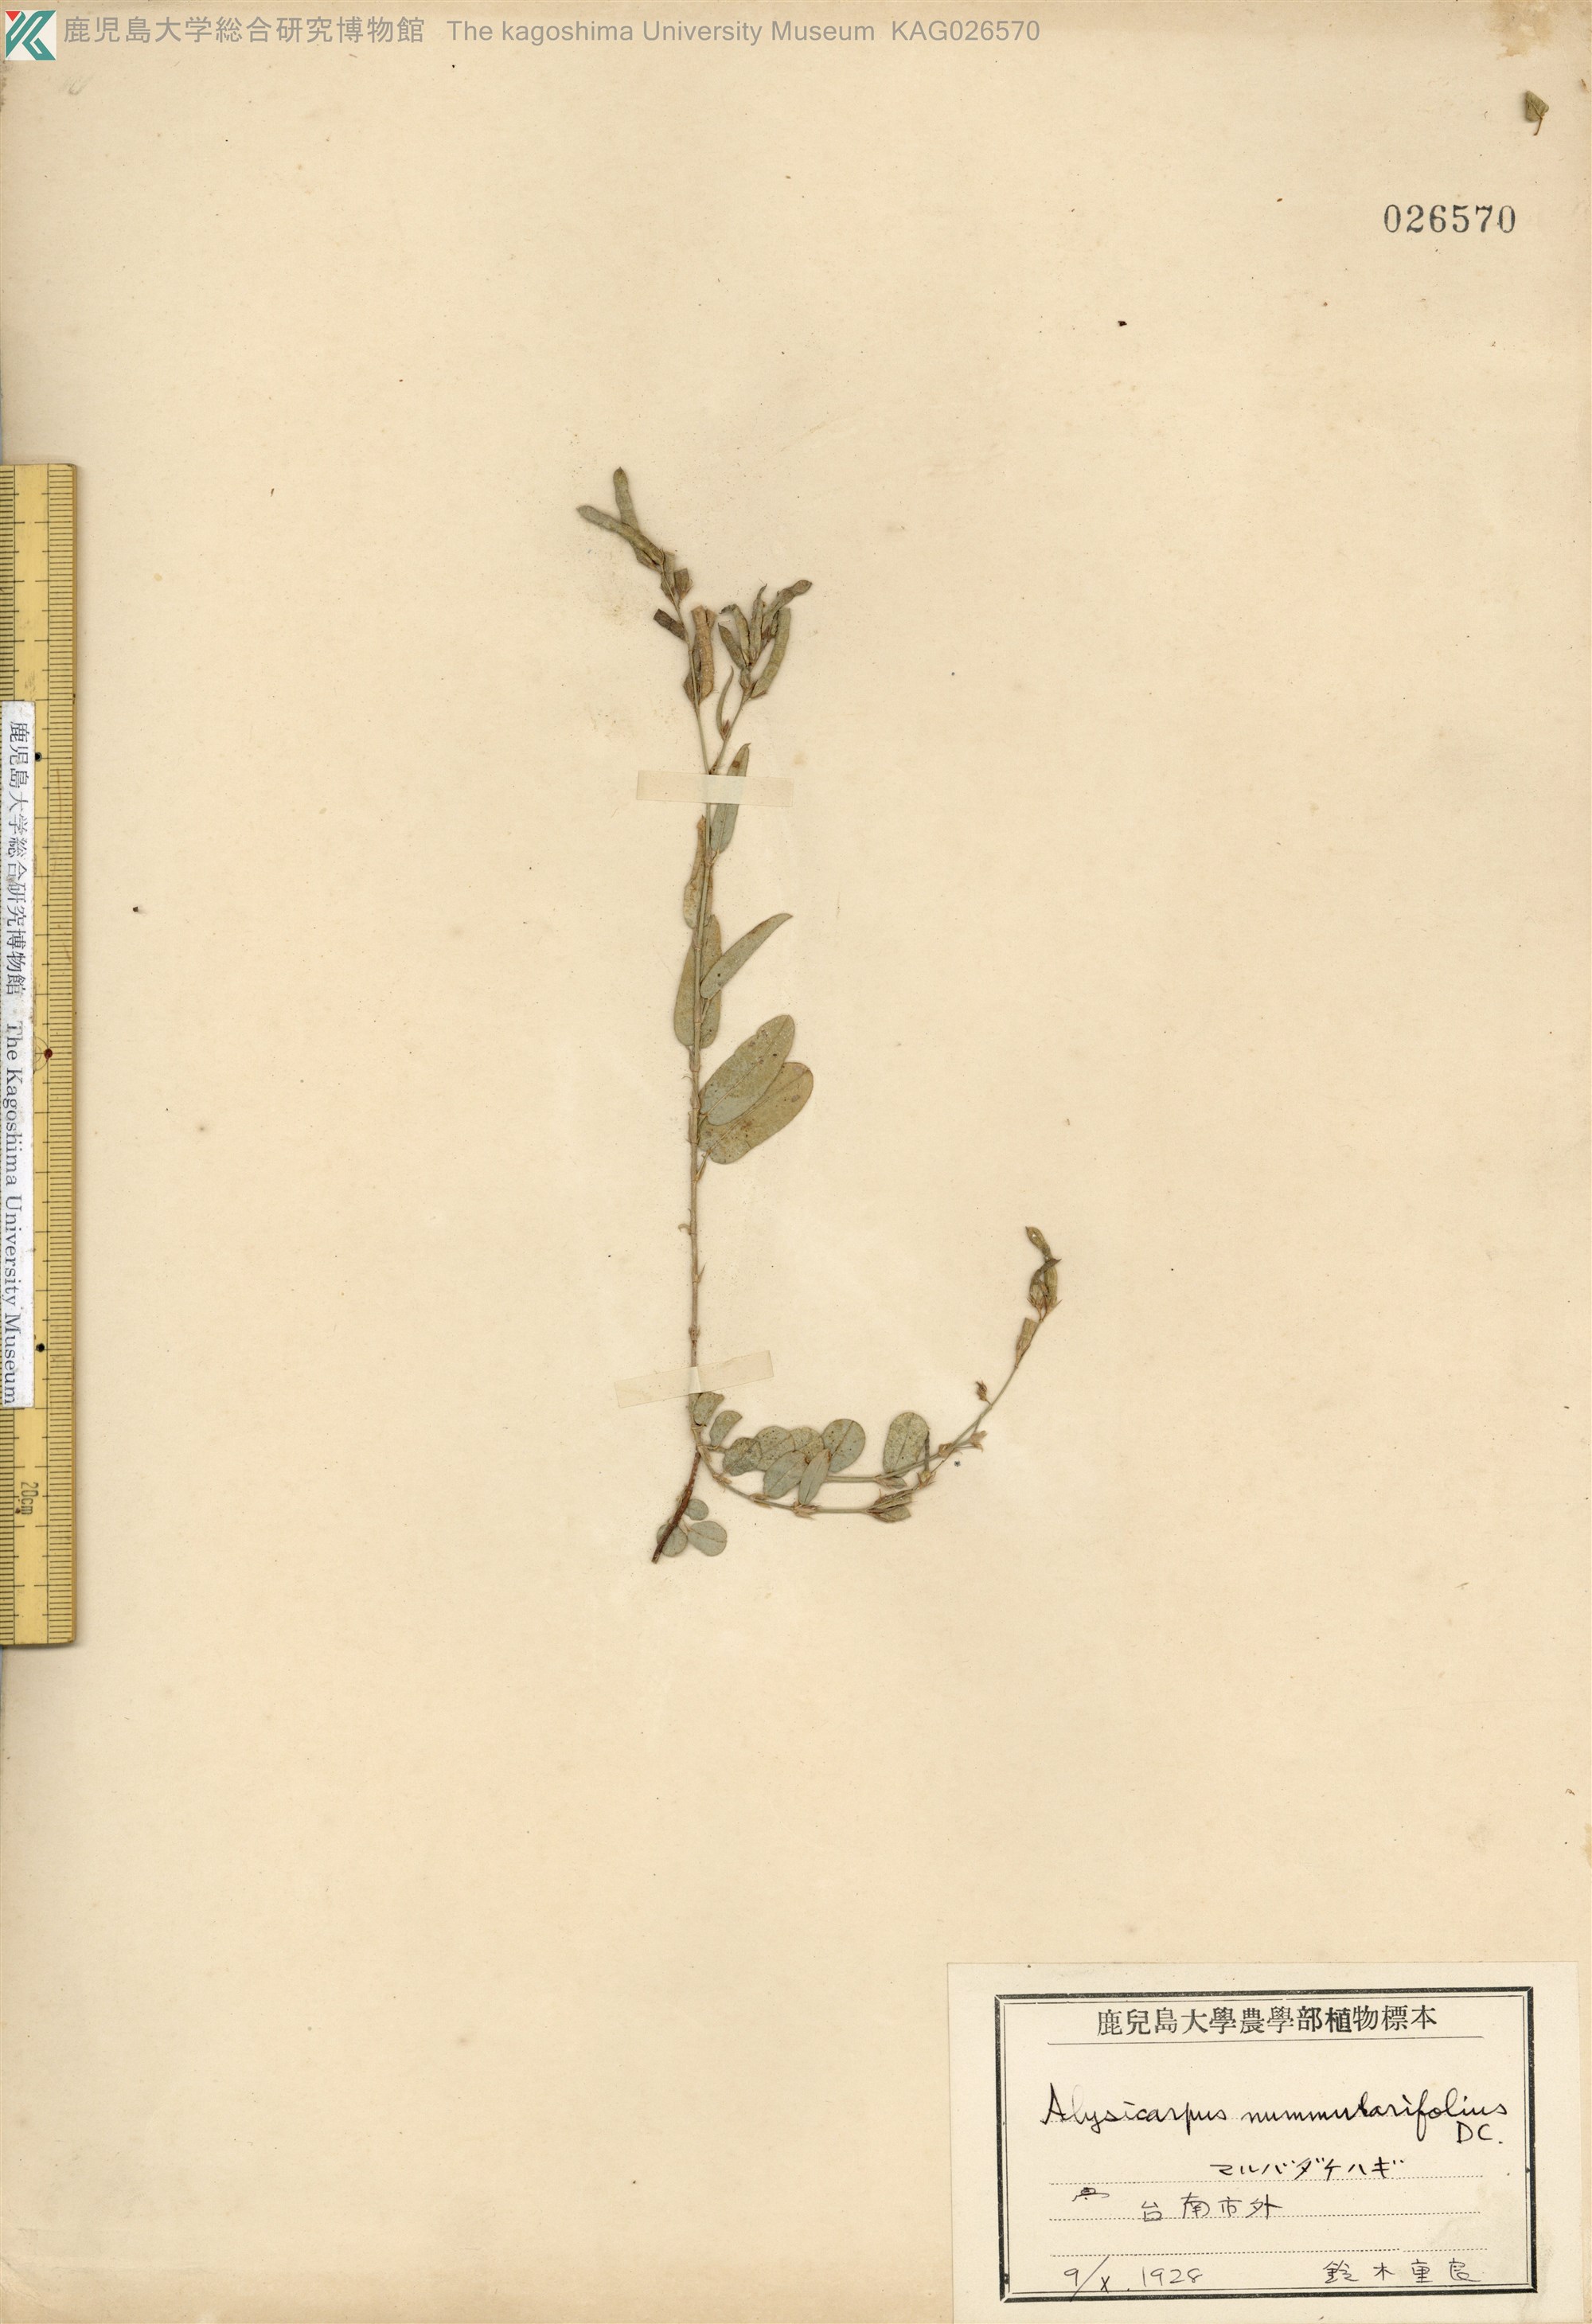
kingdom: Plantae
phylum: Tracheophyta
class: Magnoliopsida
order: Fabales
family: Fabaceae
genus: Alysicarpus
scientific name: Alysicarpus vaginalis
